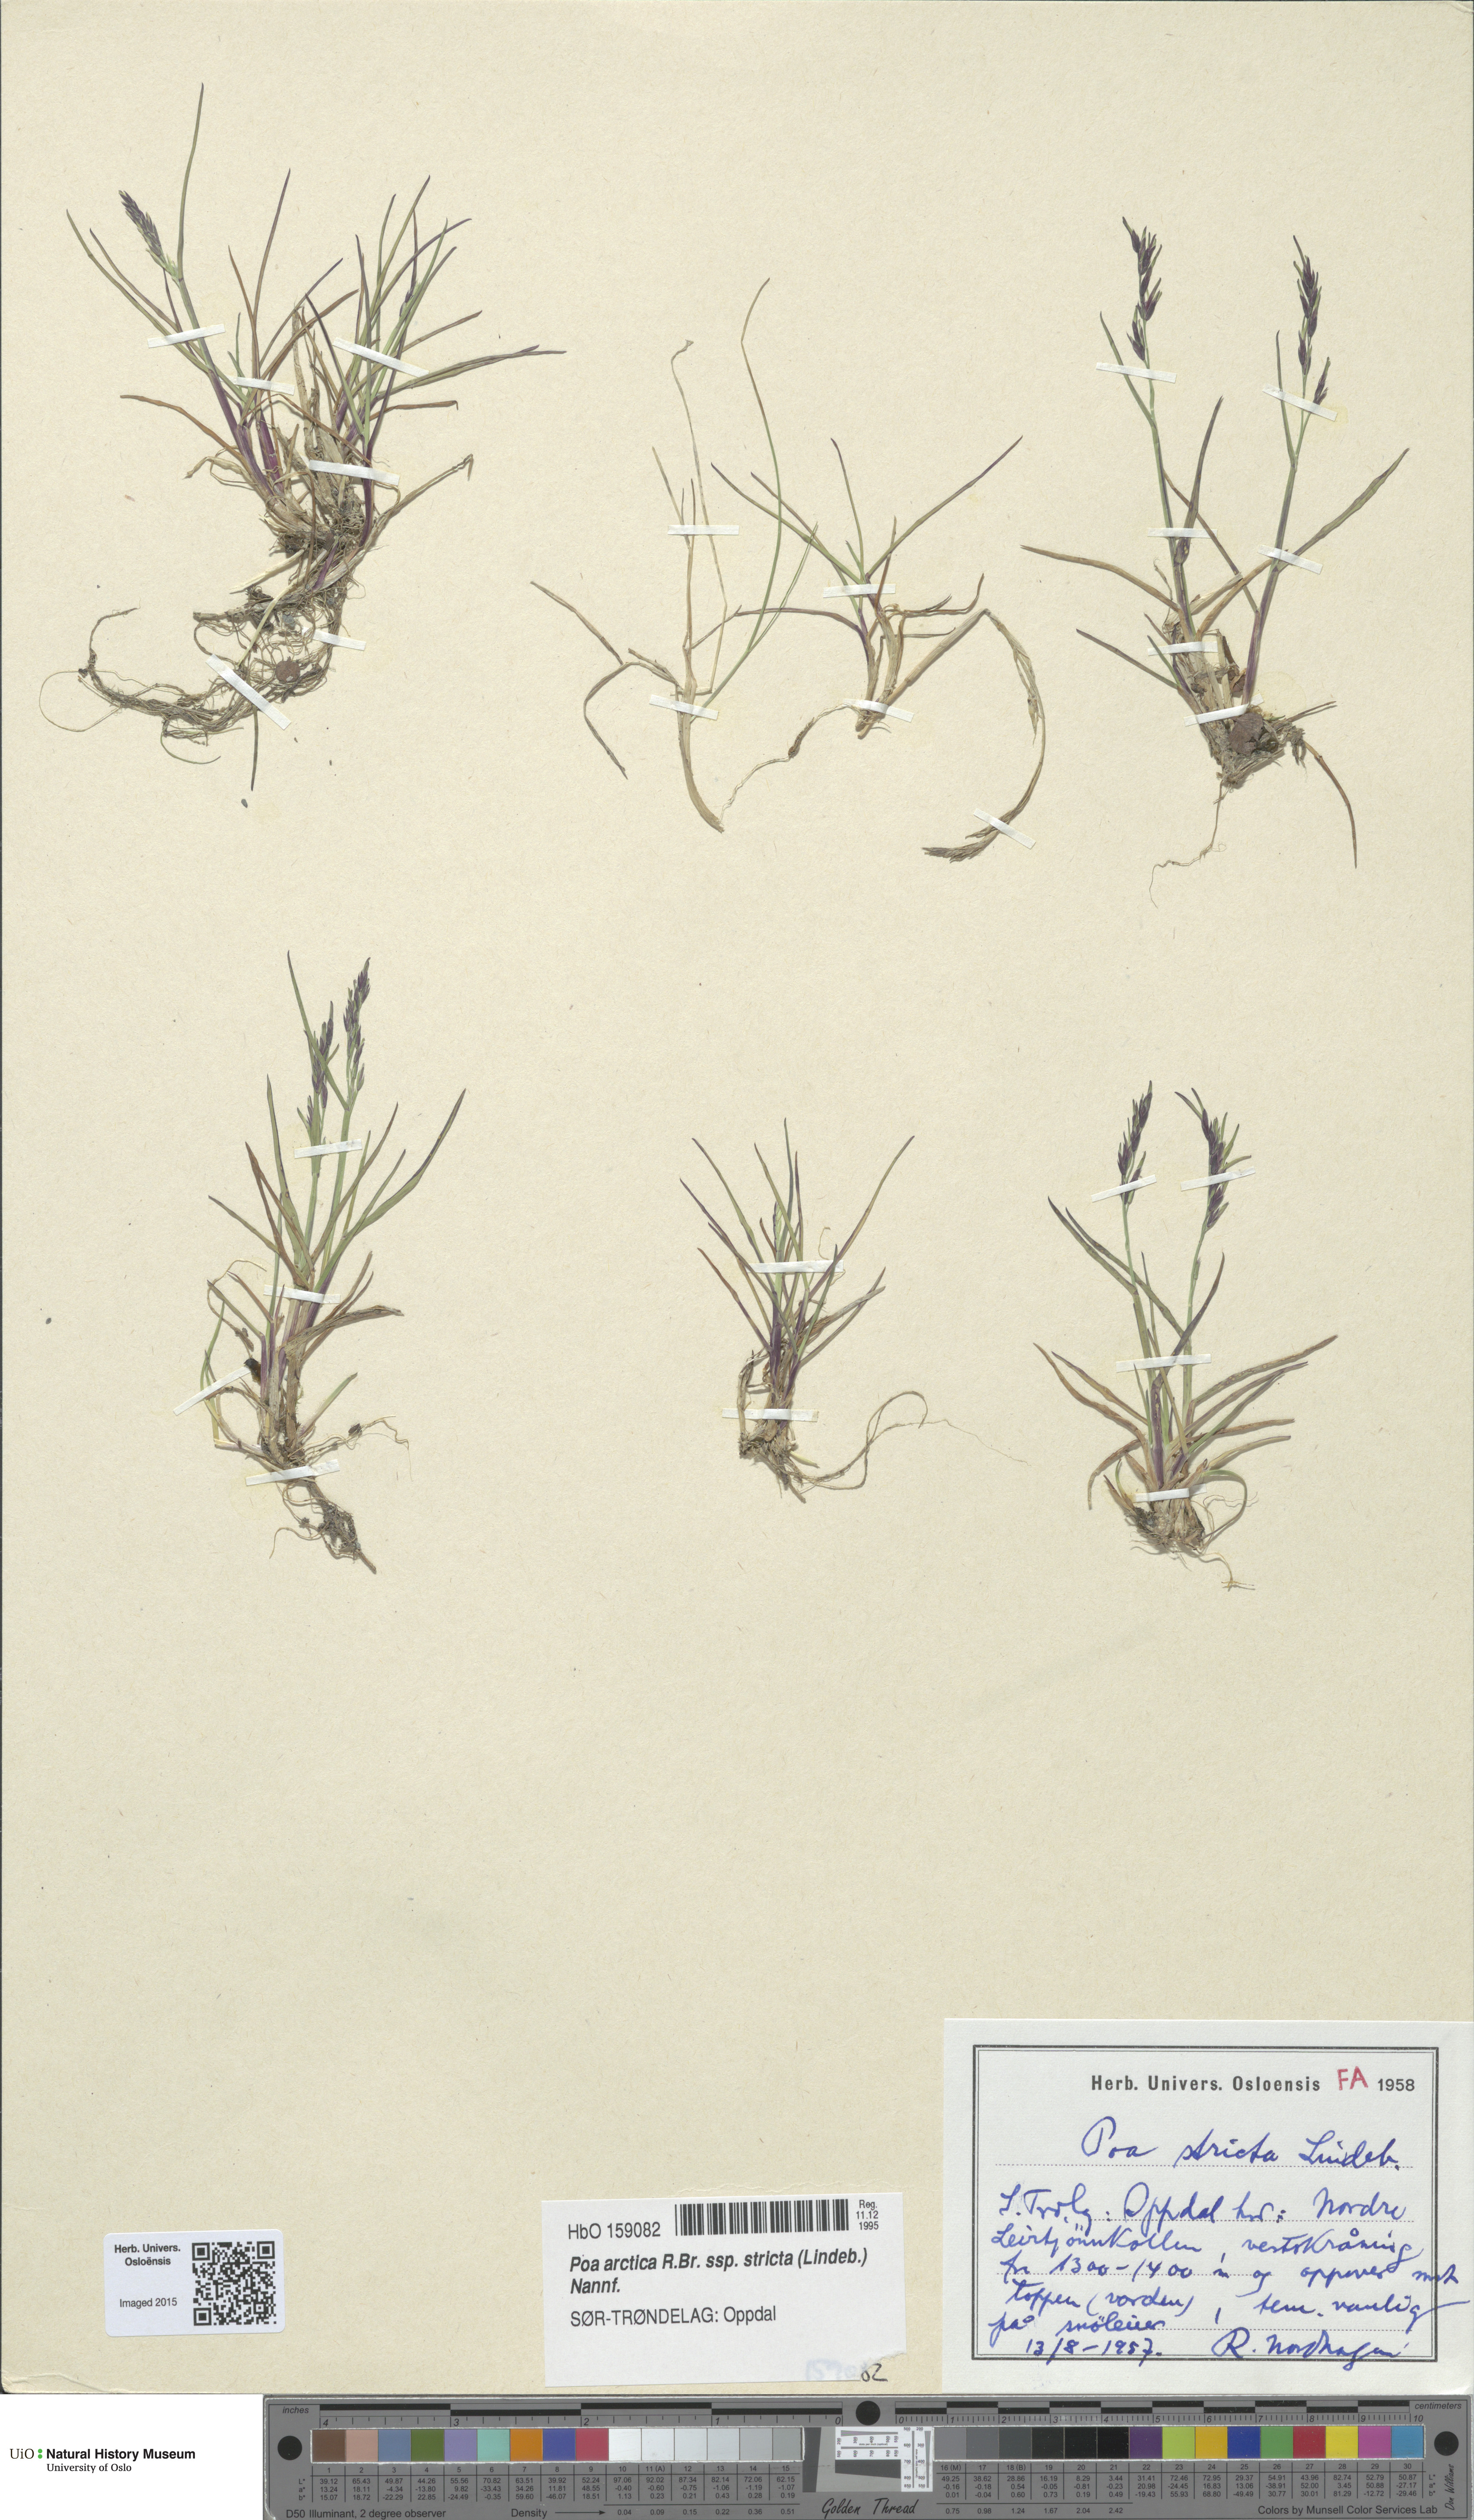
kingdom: Plantae
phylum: Tracheophyta
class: Liliopsida
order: Poales
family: Poaceae
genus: Poa
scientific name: Poa lindebergii
